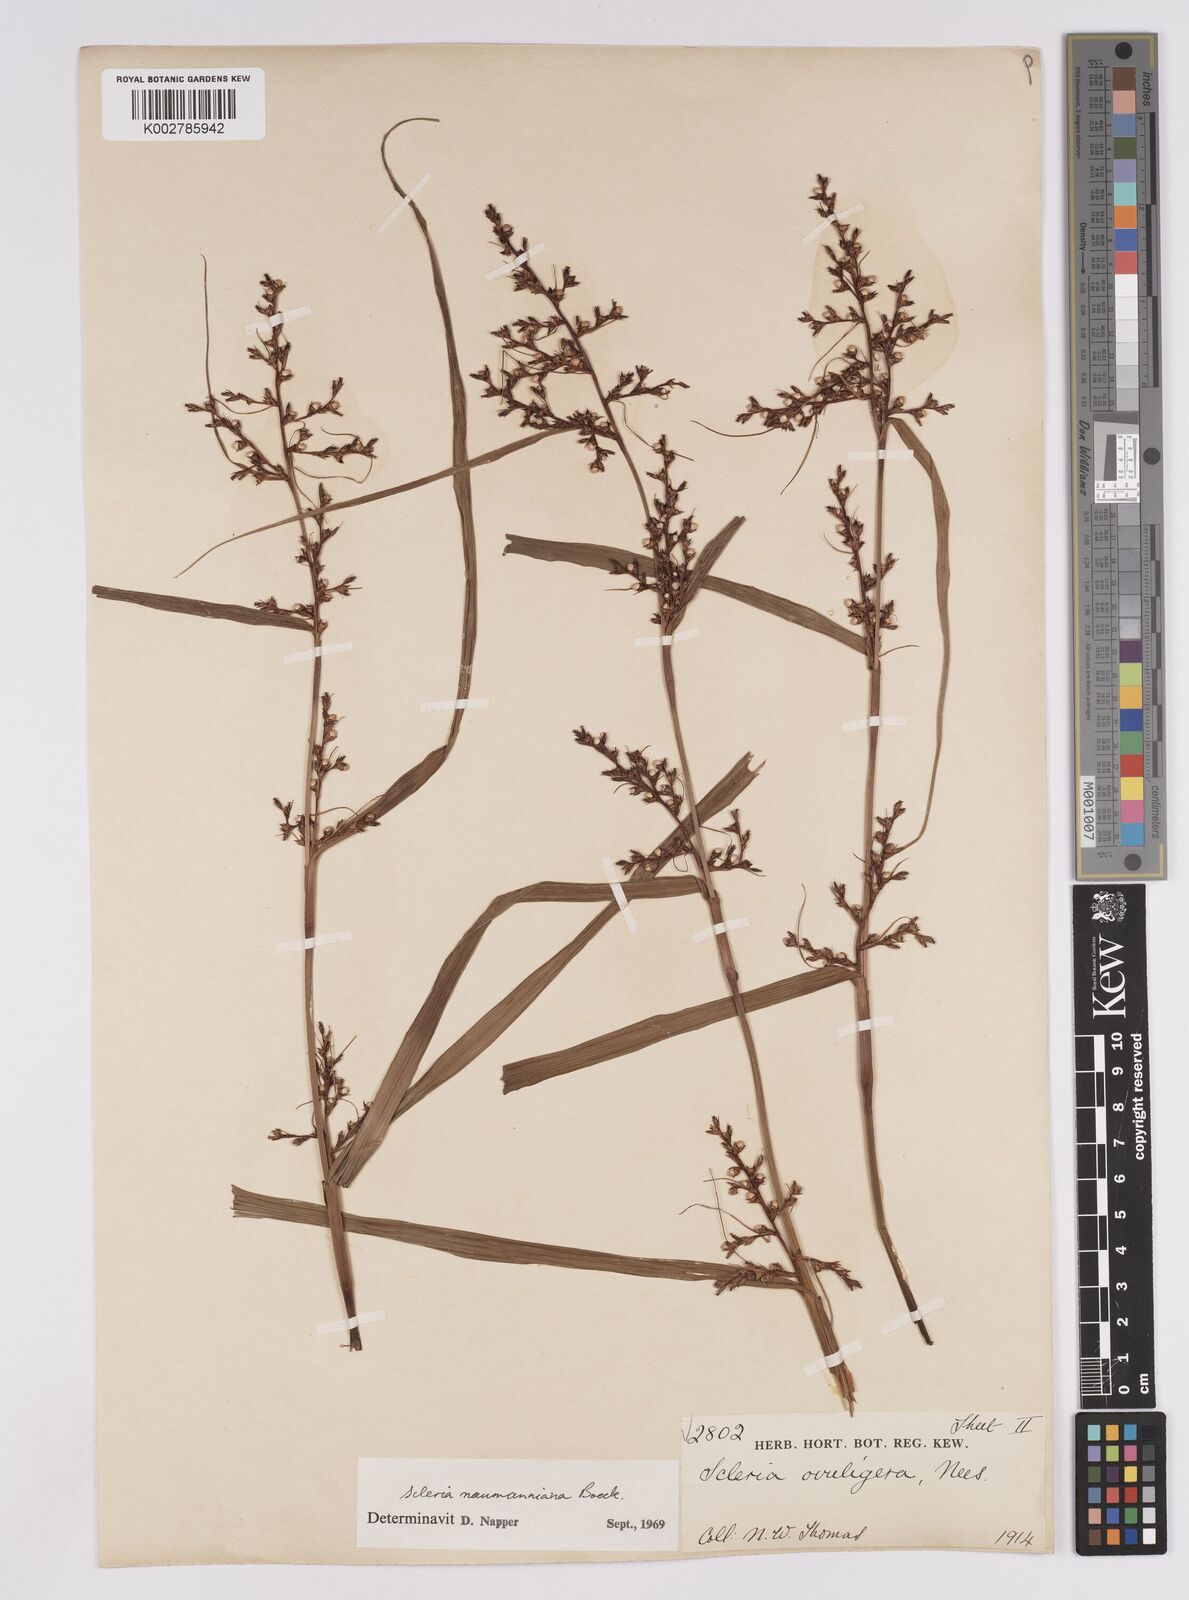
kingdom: Plantae
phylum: Tracheophyta
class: Liliopsida
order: Poales
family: Cyperaceae
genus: Scleria
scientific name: Scleria naumanniana
